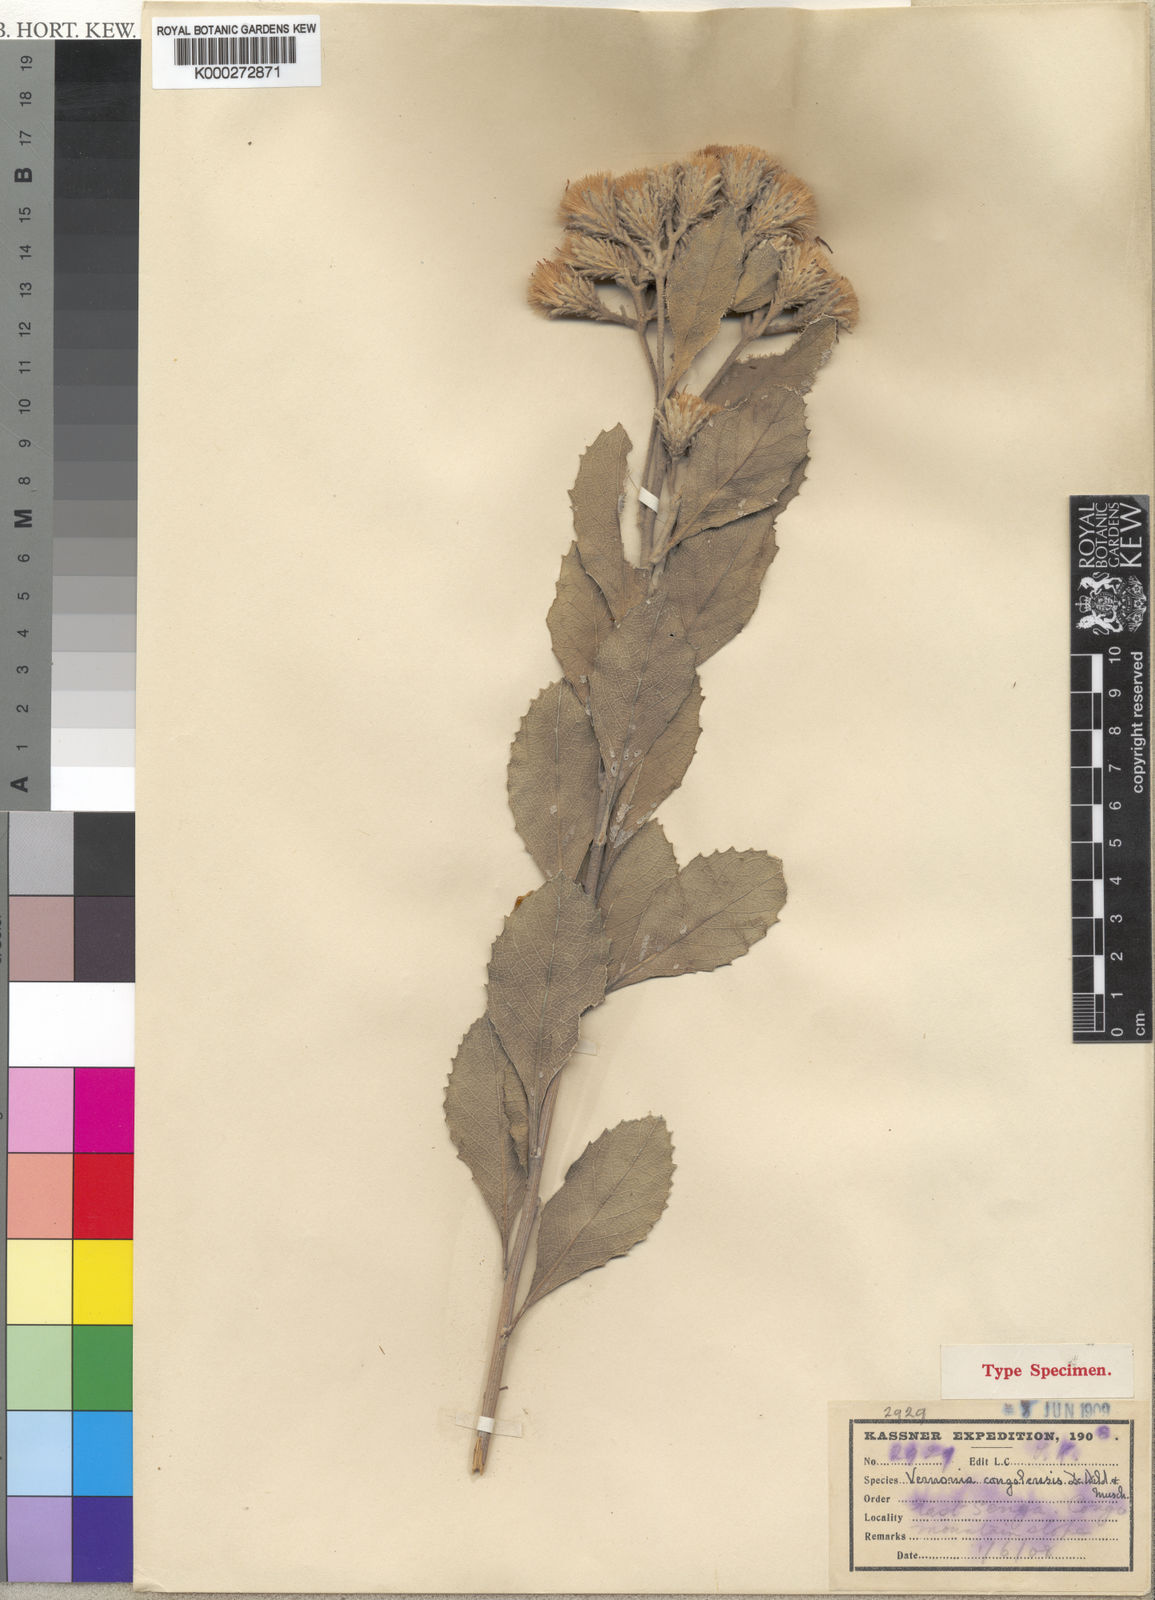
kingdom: Plantae
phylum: Tracheophyta
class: Magnoliopsida
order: Asterales
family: Asteraceae
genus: Vernonia
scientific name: Vernonia congolensis
